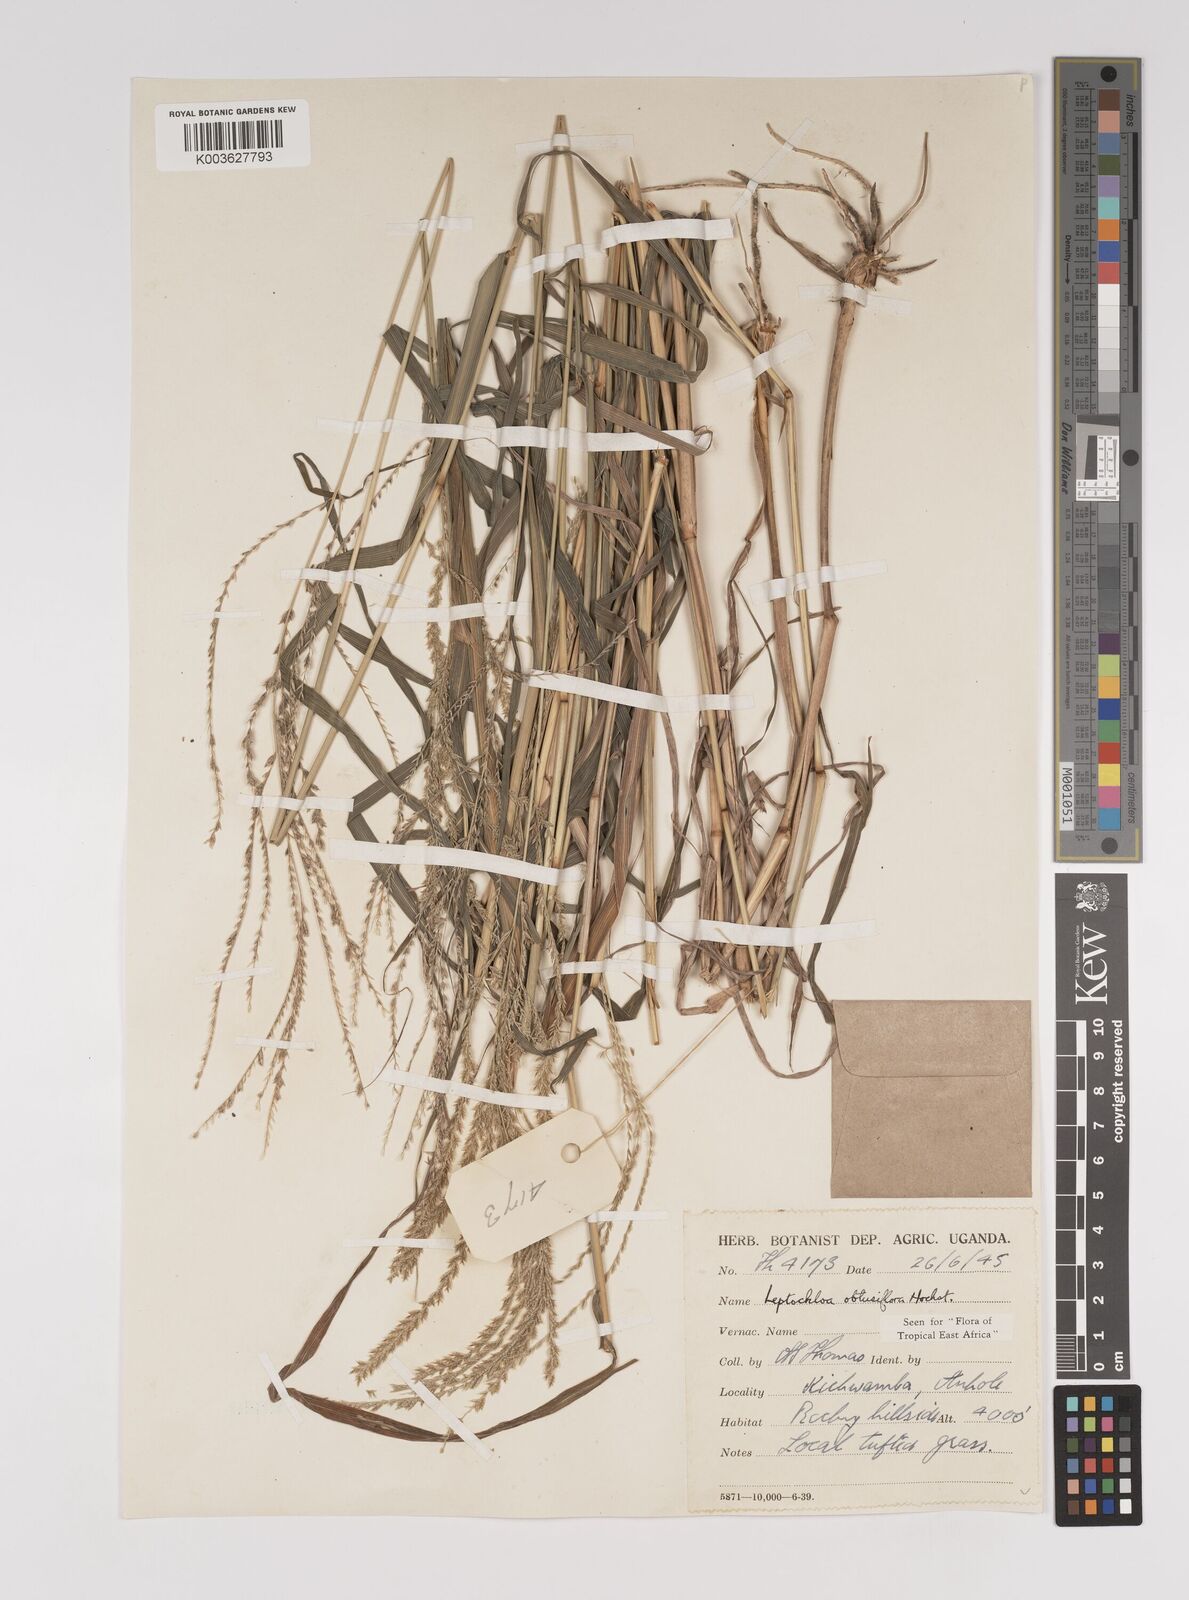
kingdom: Plantae
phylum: Tracheophyta
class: Liliopsida
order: Poales
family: Poaceae
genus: Disakisperma
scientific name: Disakisperma obtusiflorum
